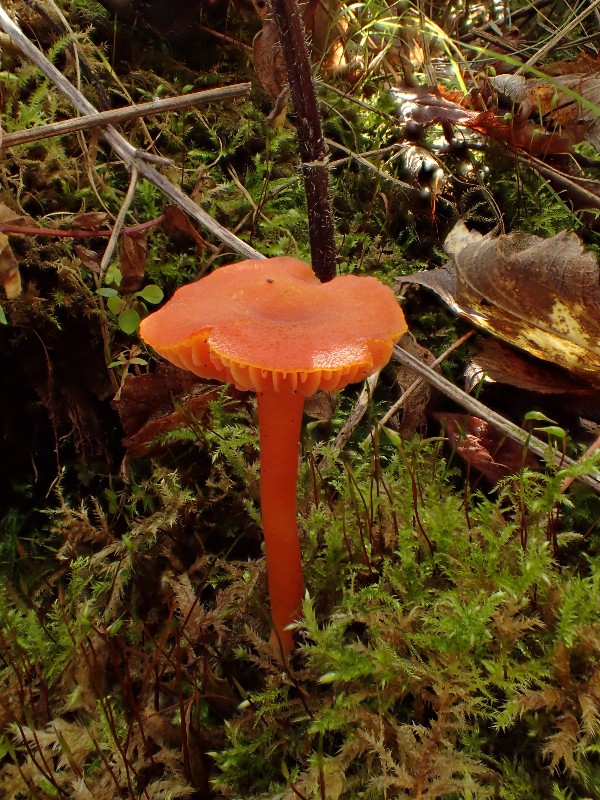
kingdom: Fungi
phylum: Basidiomycota
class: Agaricomycetes
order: Agaricales
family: Hygrophoraceae
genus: Hygrocybe
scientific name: Hygrocybe
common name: vokshat
